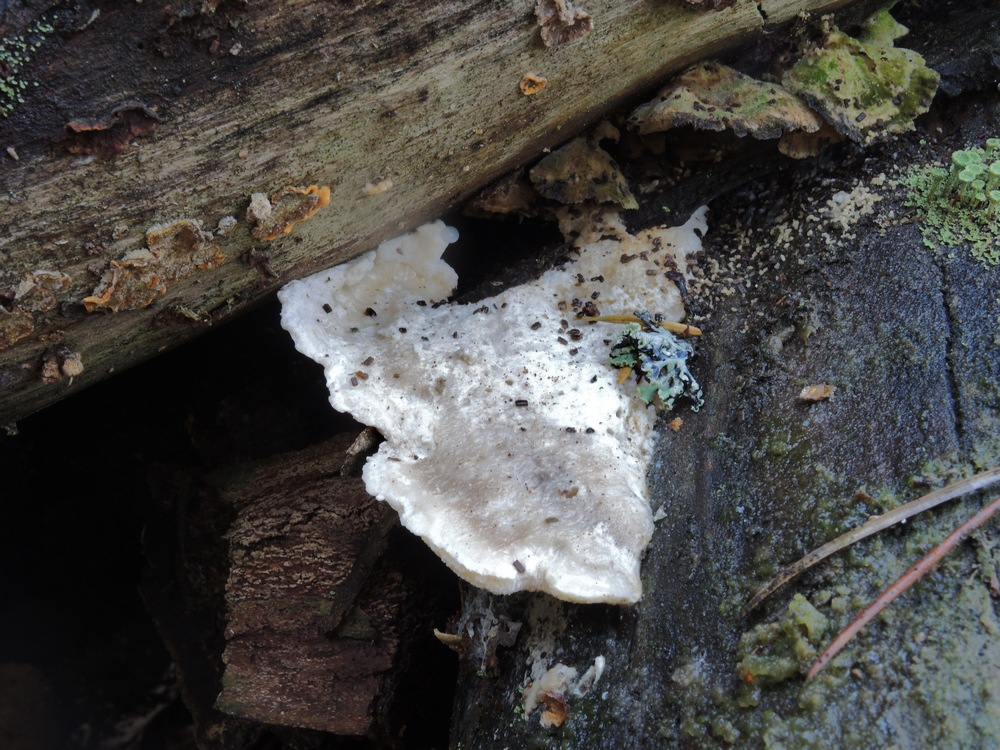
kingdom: Fungi
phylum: Basidiomycota
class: Agaricomycetes
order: Polyporales
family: Incrustoporiaceae
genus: Tyromyces
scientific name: Tyromyces lacteus
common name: mælkehvid kødporesvamp
